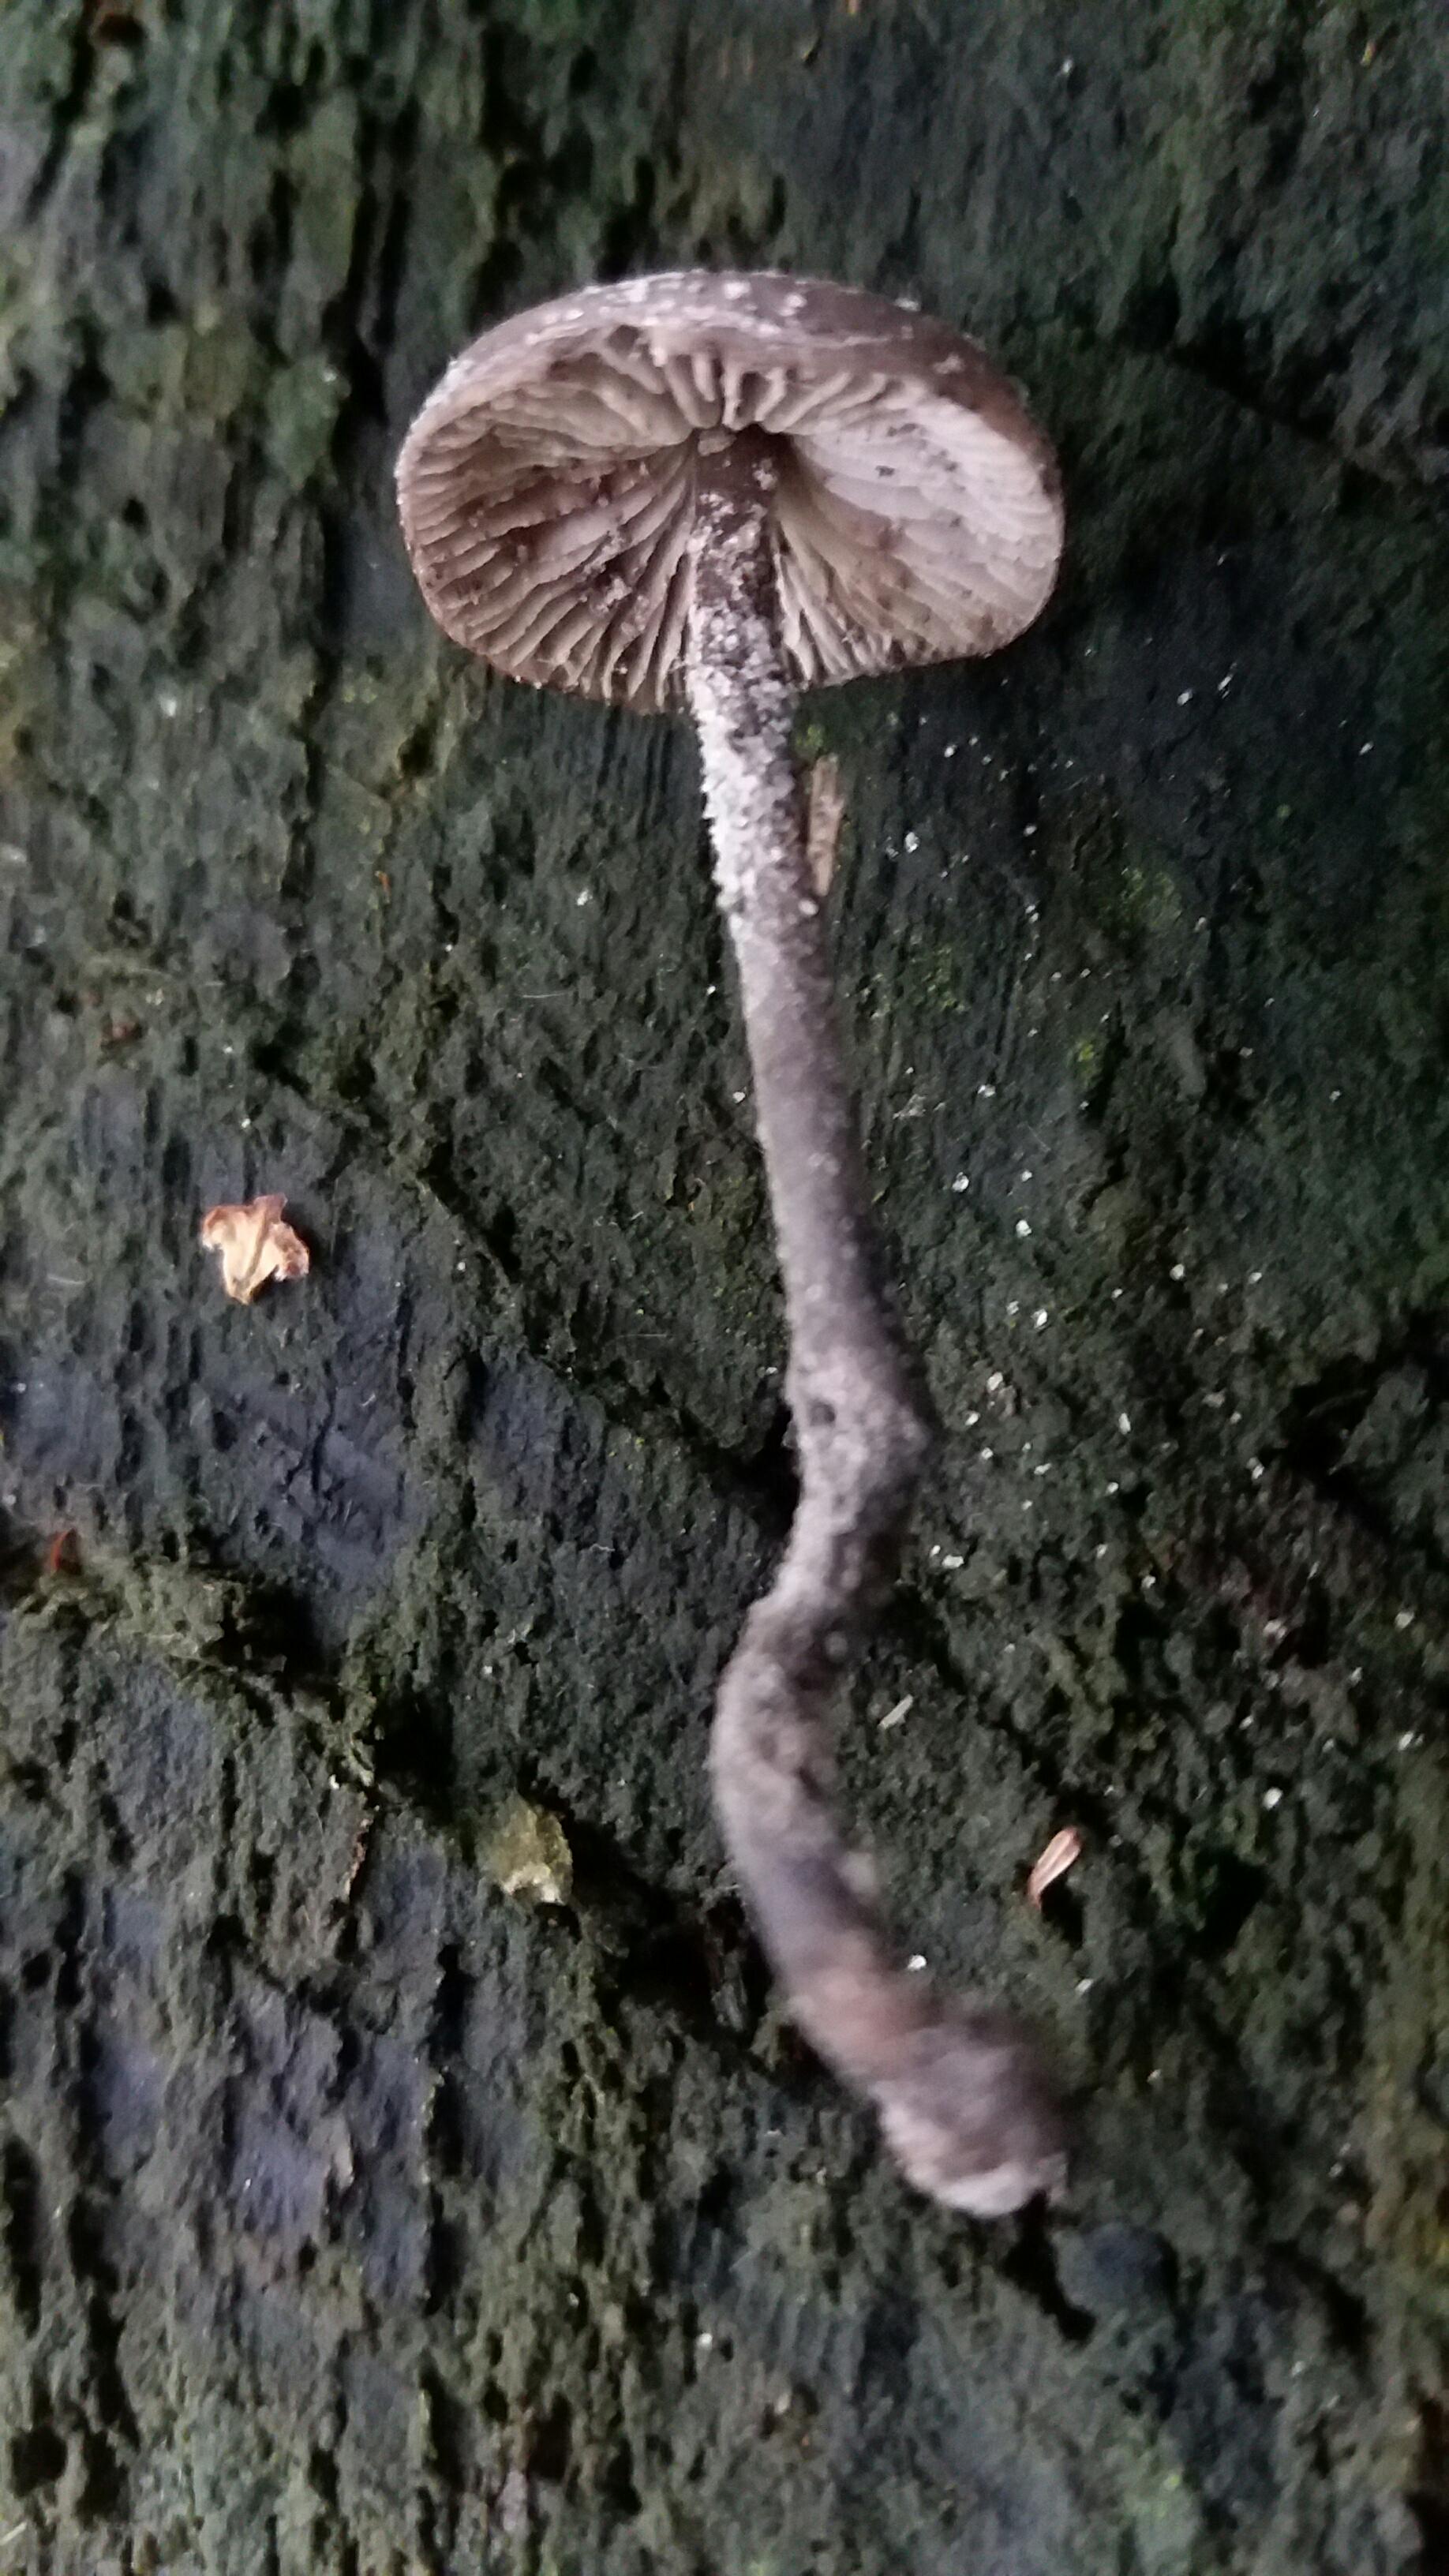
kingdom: Fungi
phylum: Basidiomycota
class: Agaricomycetes
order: Agaricales
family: Omphalotaceae
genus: Mycetinis
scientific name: Mycetinis alliaceus
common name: stor løghat
